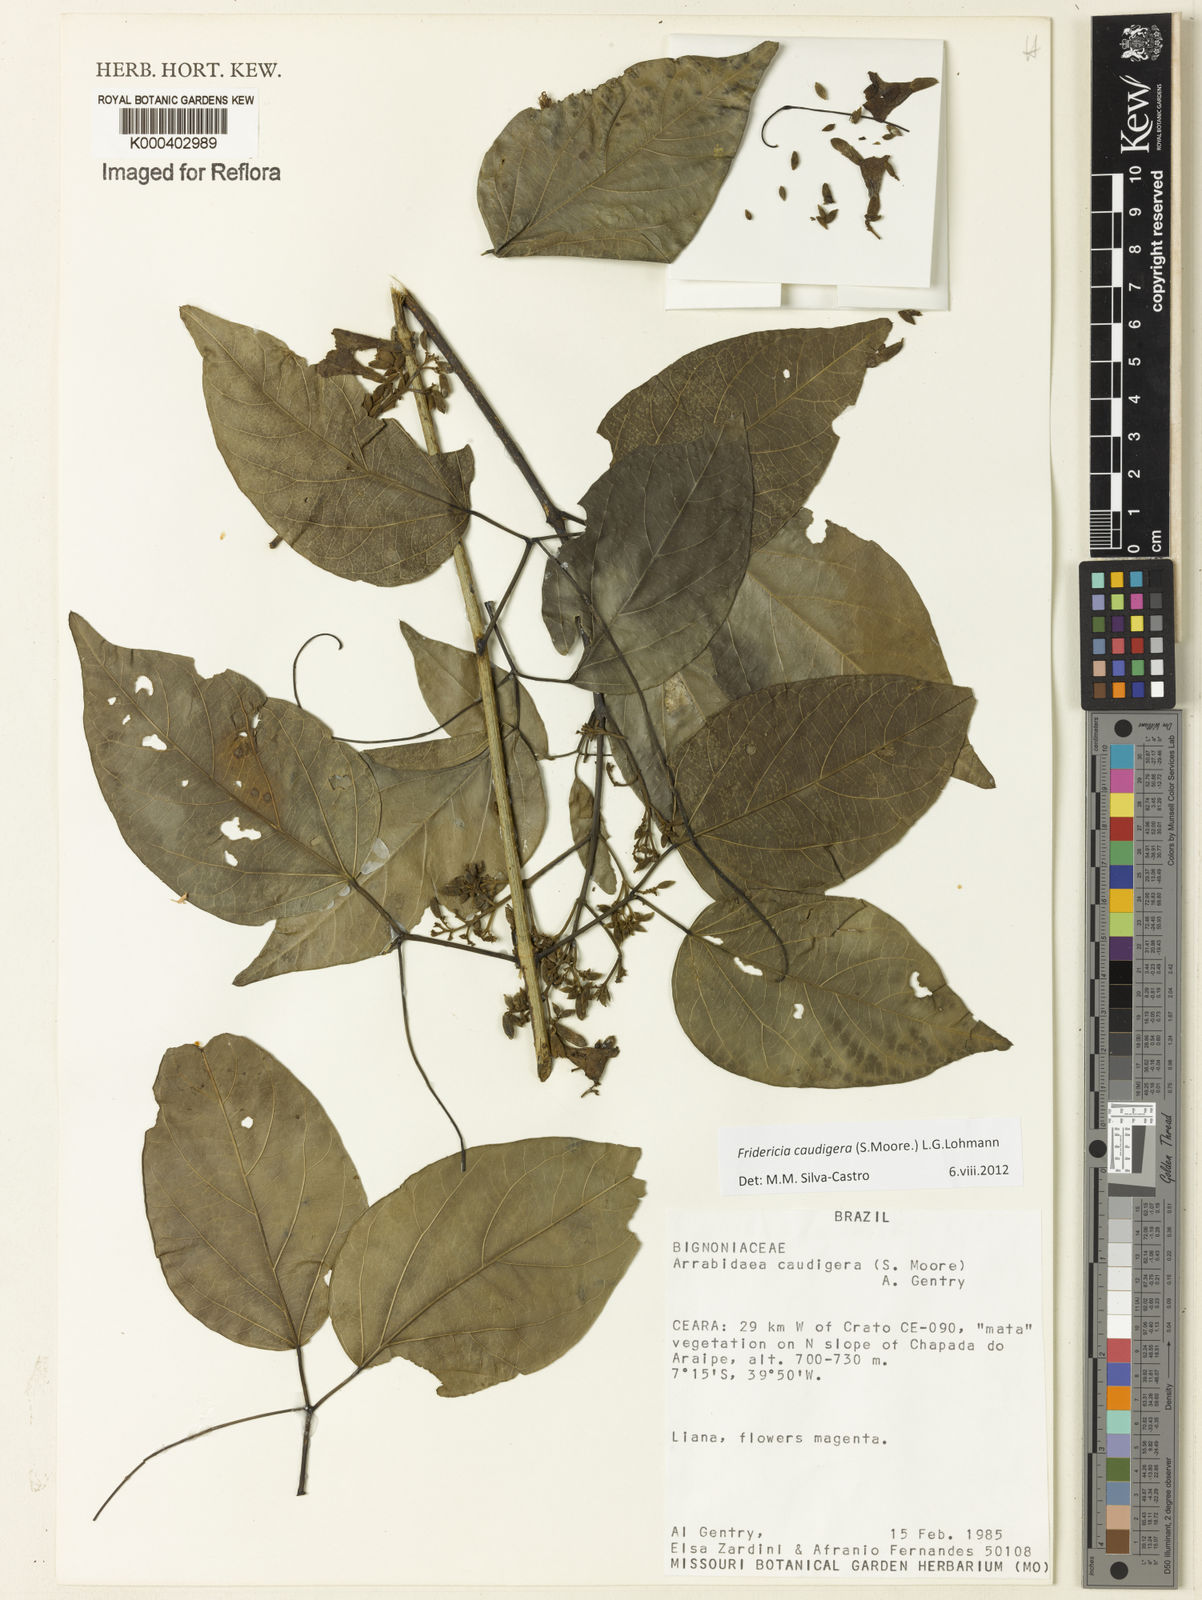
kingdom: Plantae
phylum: Tracheophyta
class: Magnoliopsida
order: Lamiales
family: Bignoniaceae
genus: Fridericia
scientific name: Fridericia caudigera
